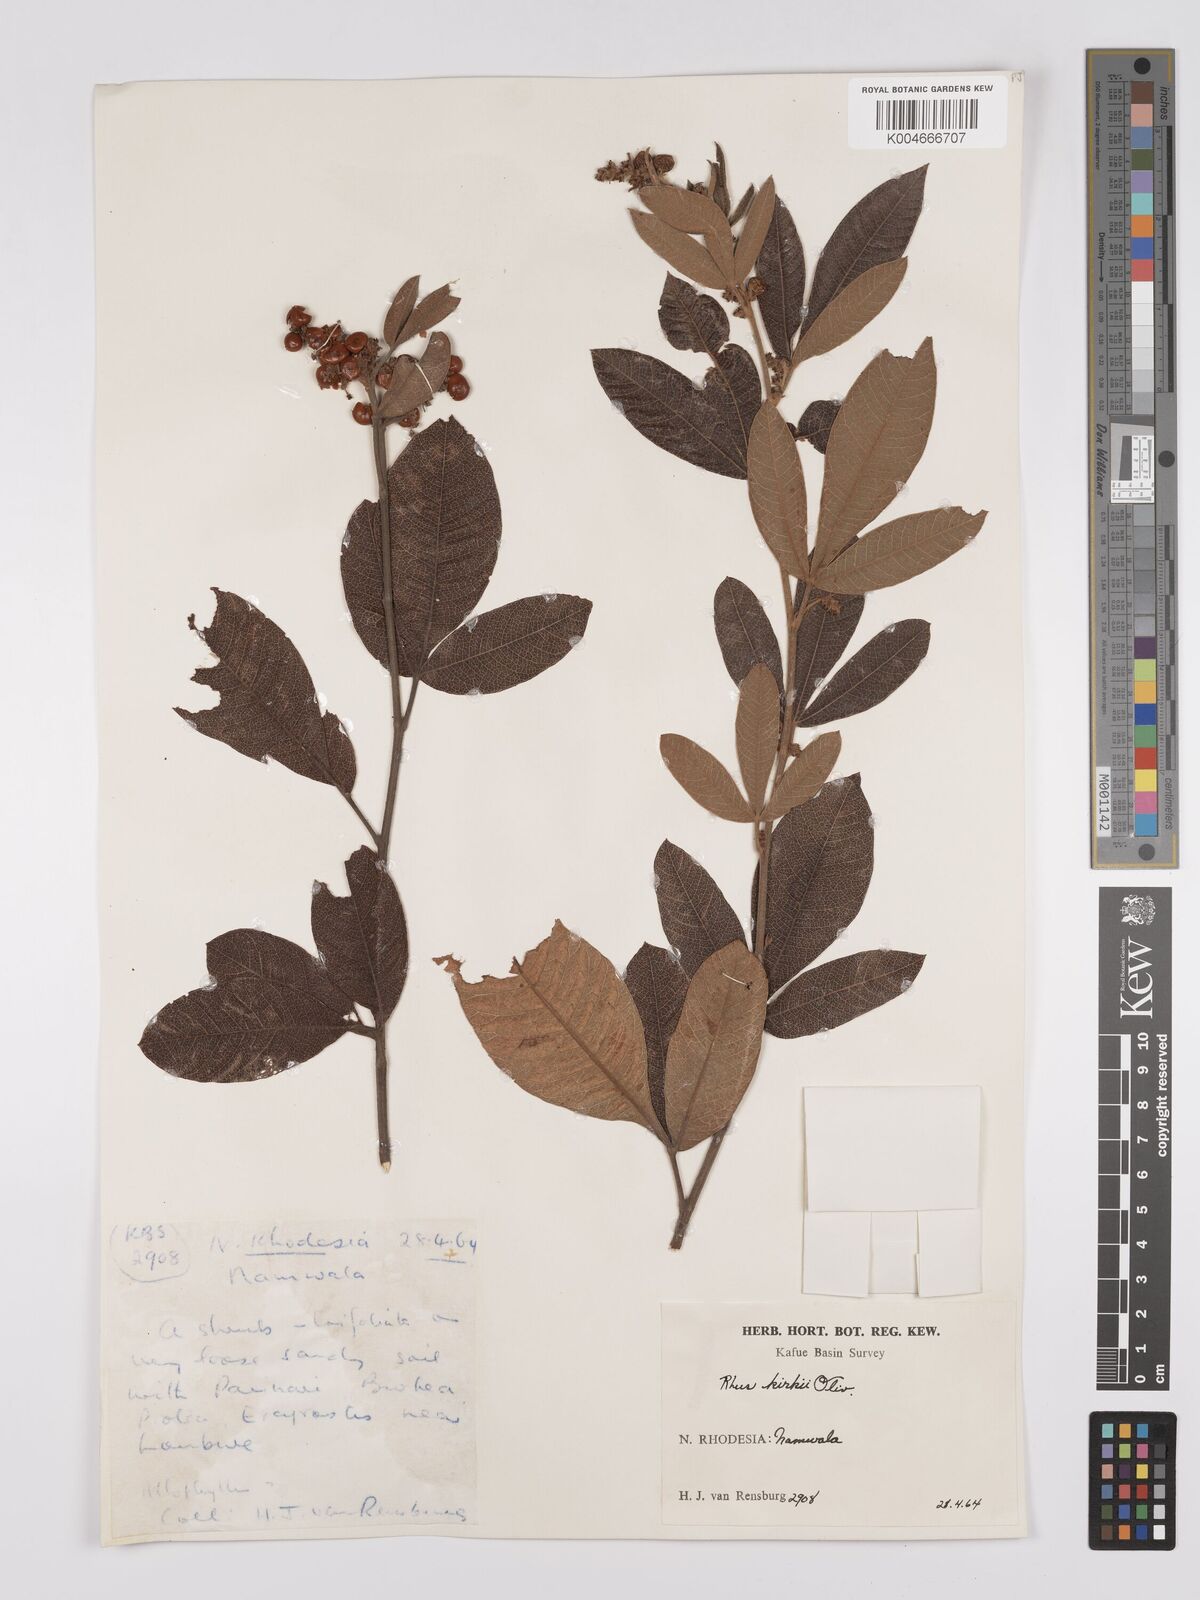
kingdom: Plantae
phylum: Tracheophyta
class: Magnoliopsida
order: Sapindales
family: Anacardiaceae
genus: Searsia
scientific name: Searsia kirkii
